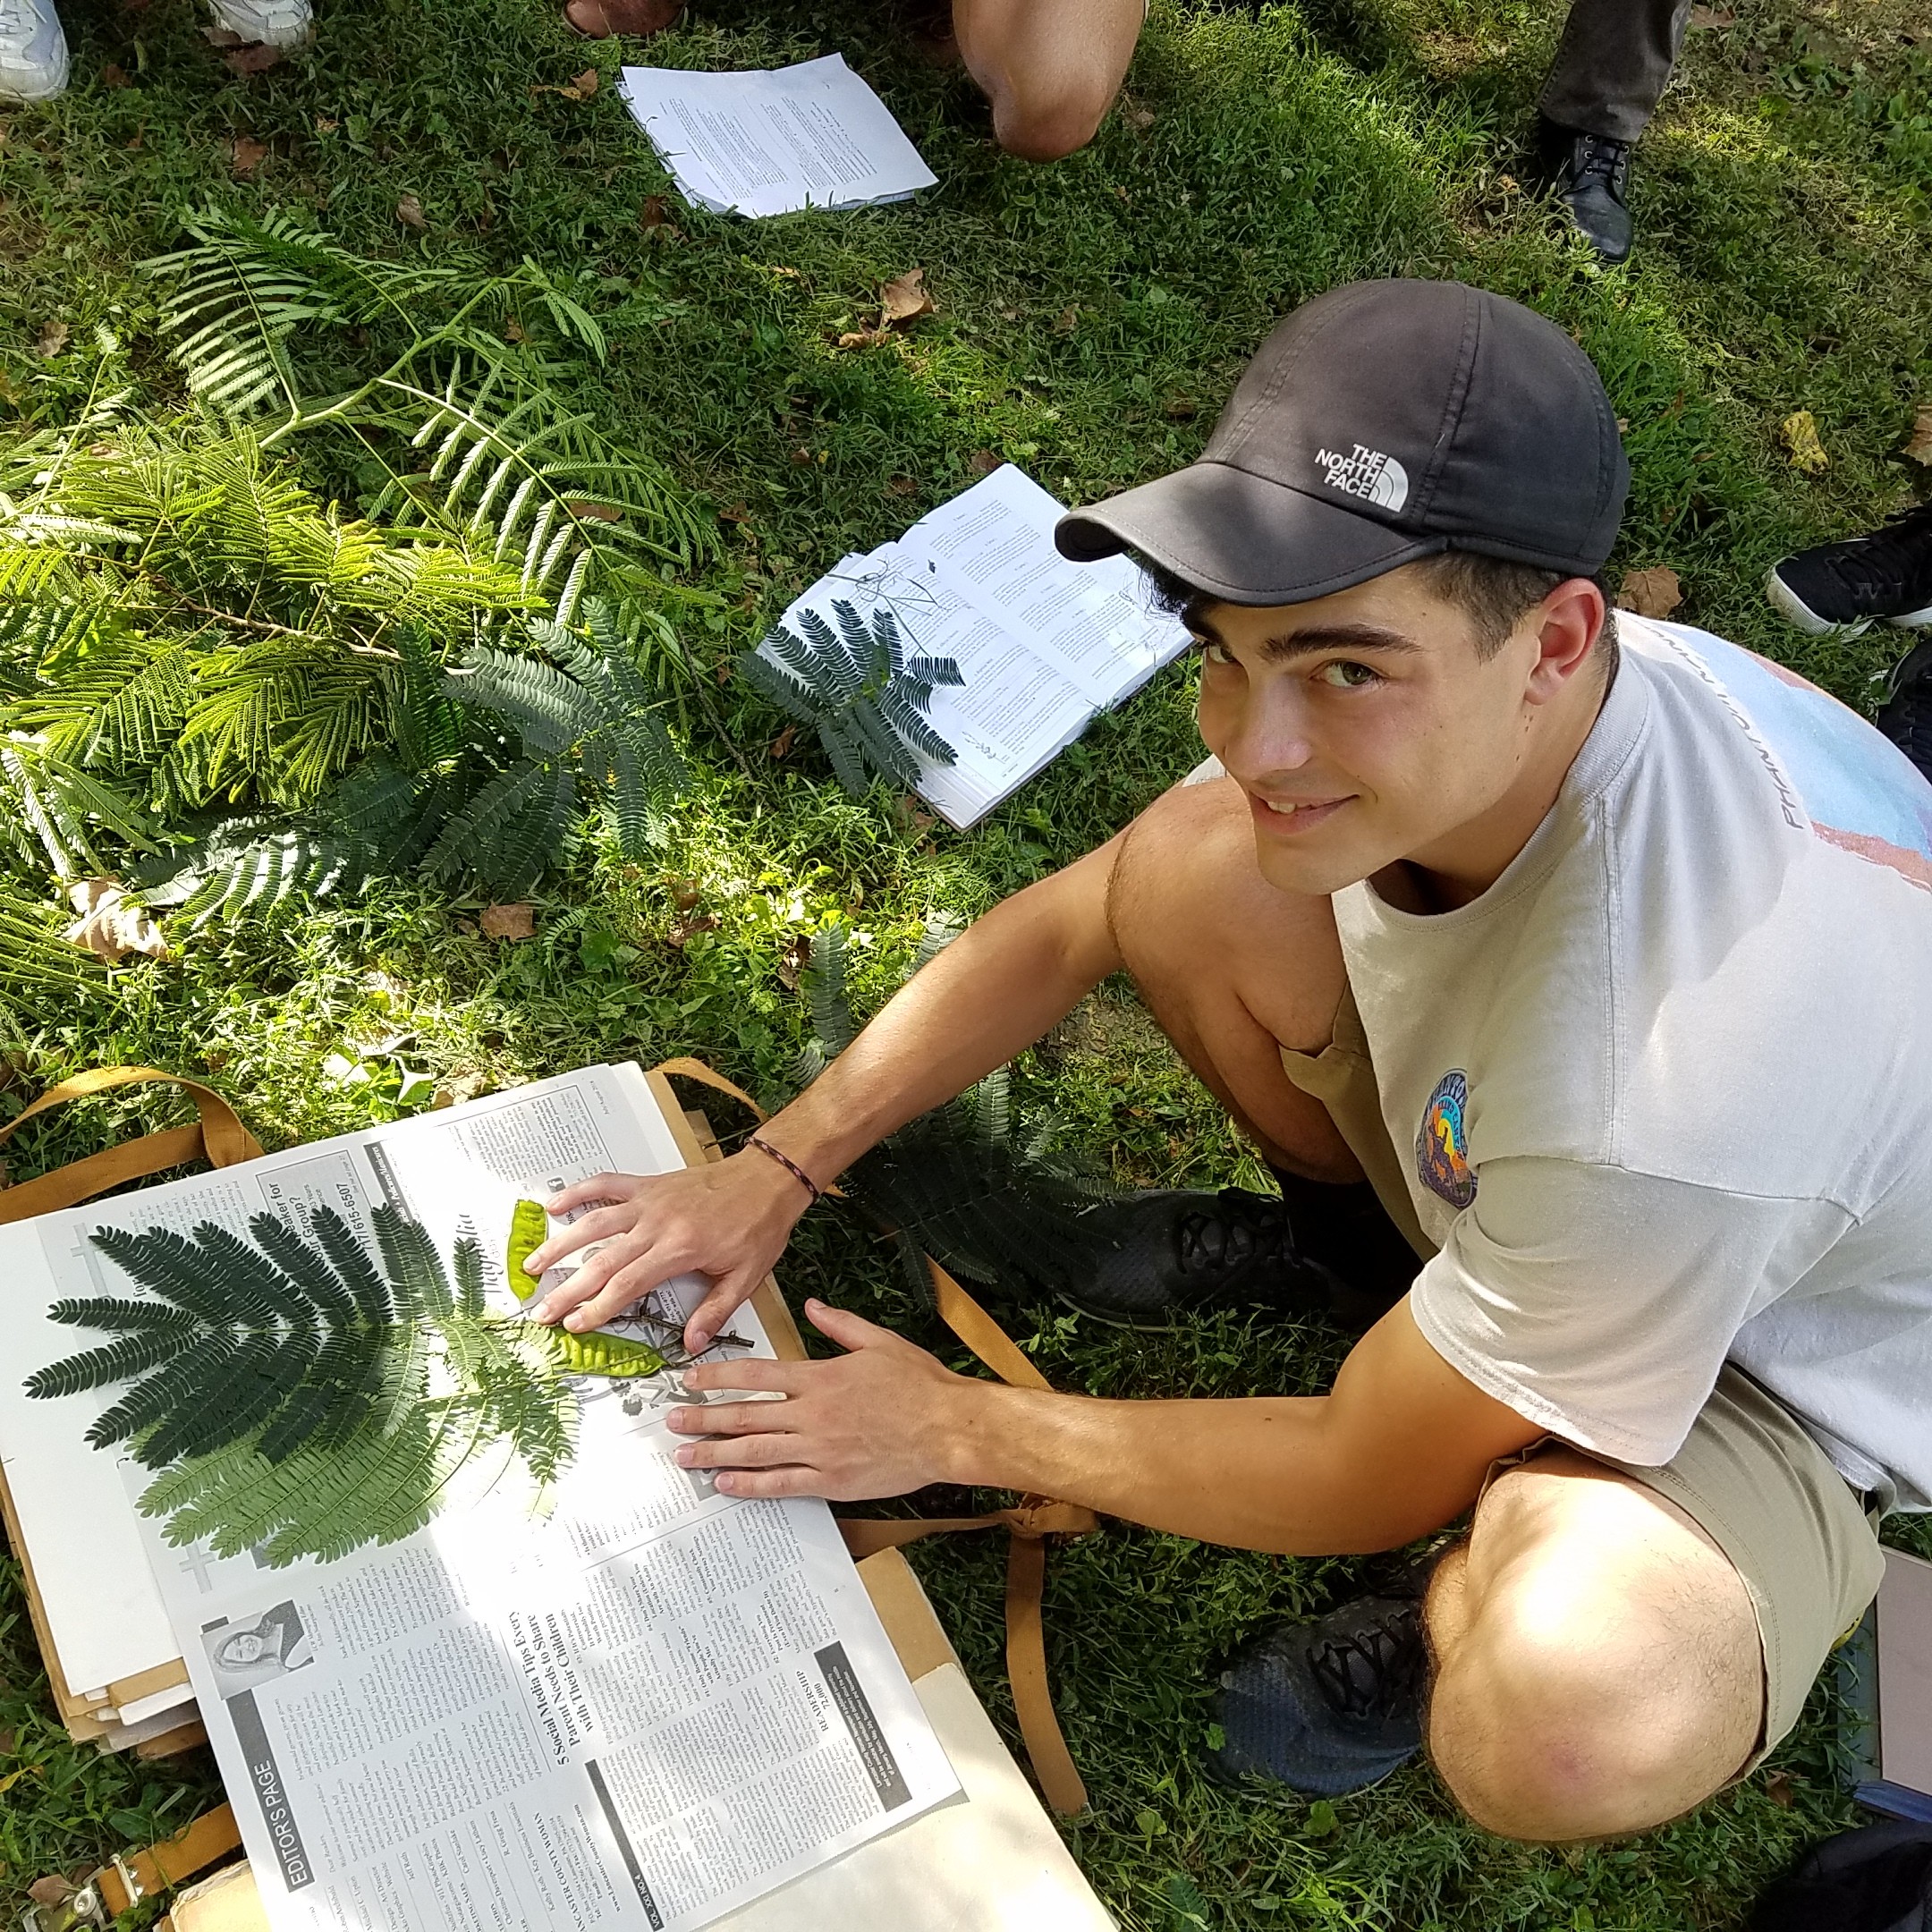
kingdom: Plantae
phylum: Tracheophyta
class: Magnoliopsida
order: Fabales
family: Fabaceae
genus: Albizia
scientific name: Albizia julibrissin
